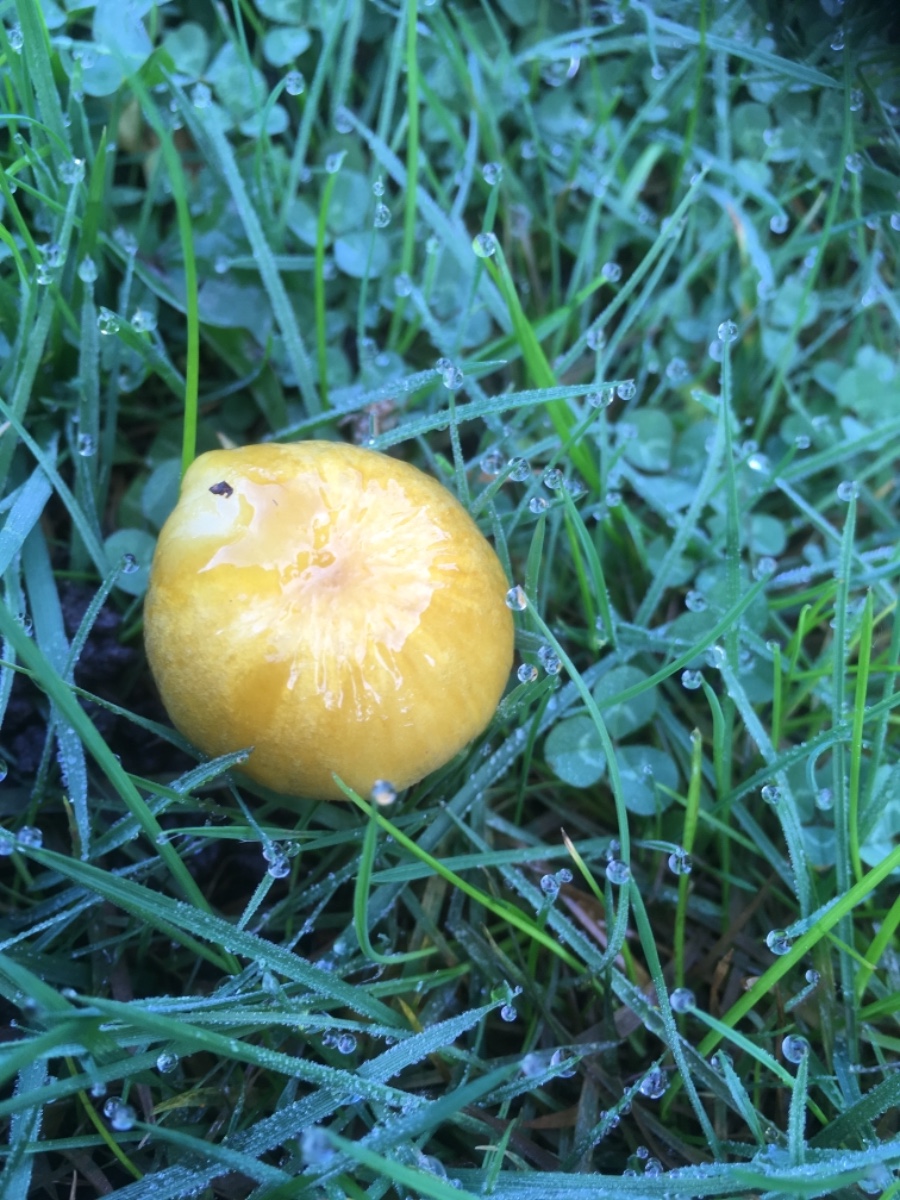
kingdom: Fungi
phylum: Basidiomycota
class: Agaricomycetes
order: Agaricales
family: Bolbitiaceae
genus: Bolbitius
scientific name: Bolbitius titubans
